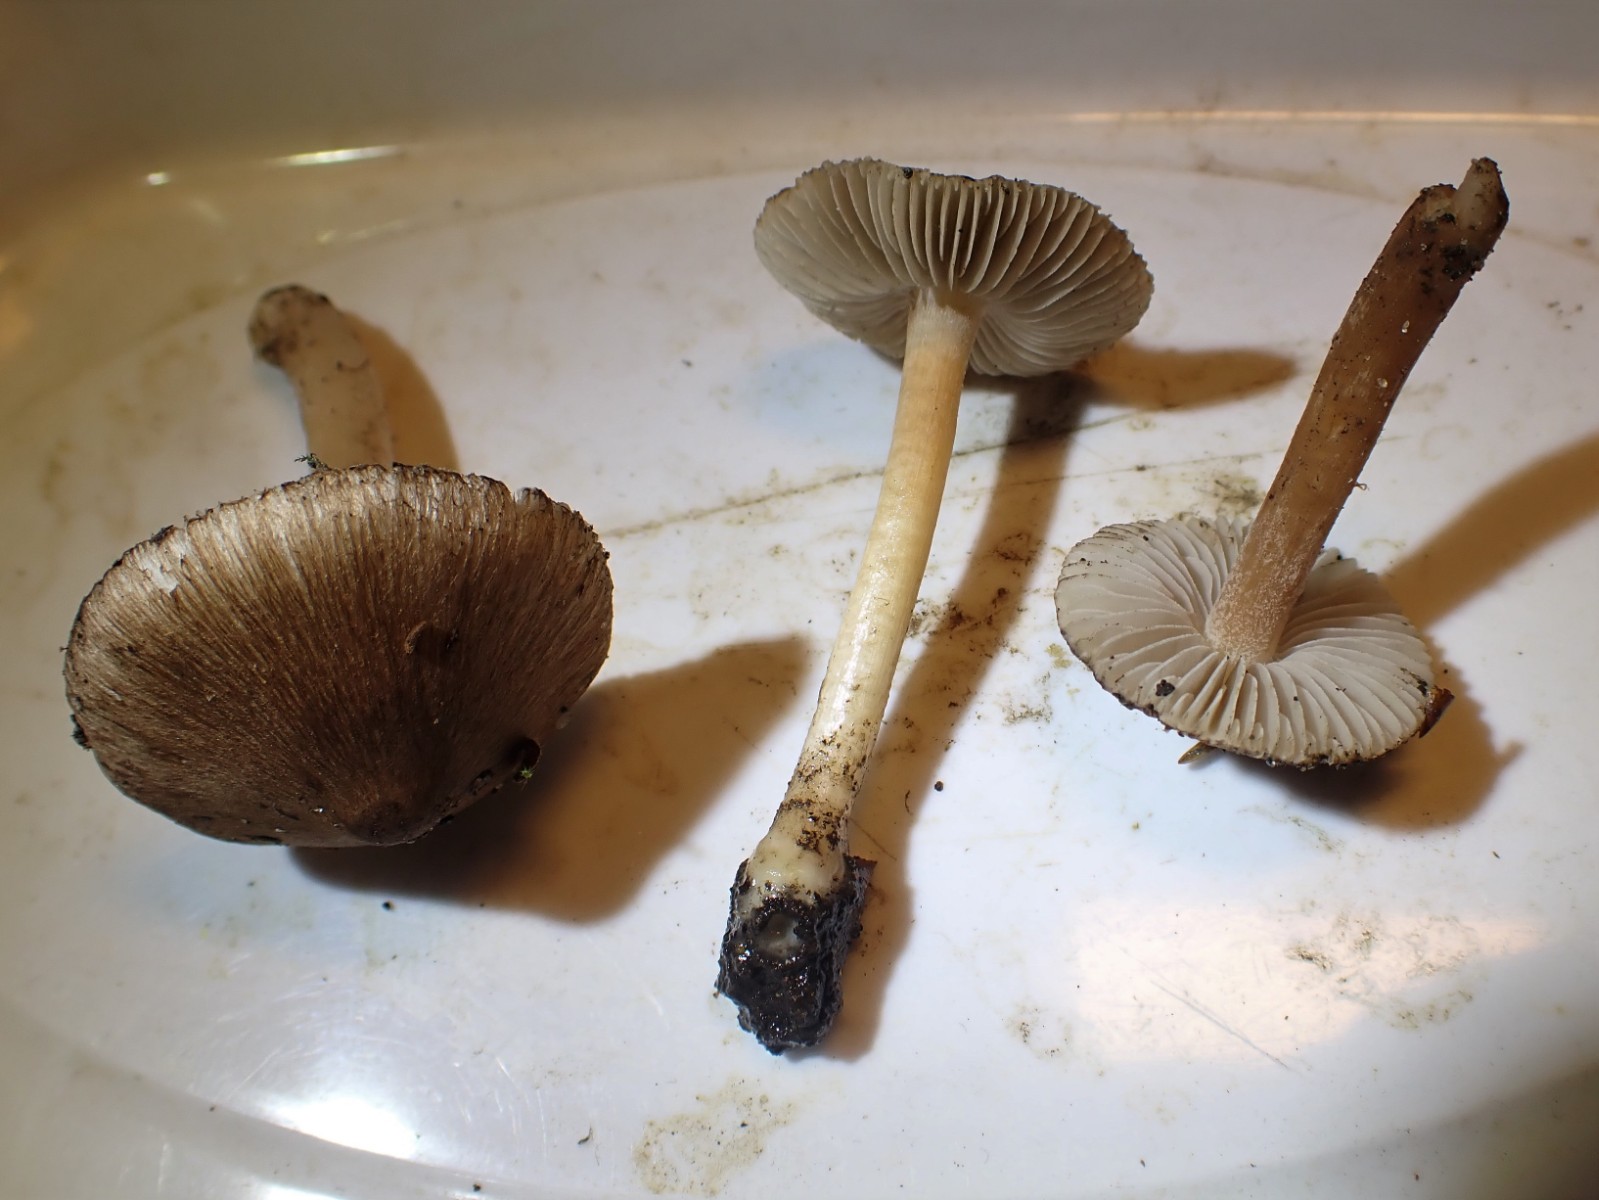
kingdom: Fungi
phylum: Basidiomycota
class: Agaricomycetes
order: Agaricales
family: Inocybaceae
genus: Inocybe
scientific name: Inocybe
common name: trævlhat
